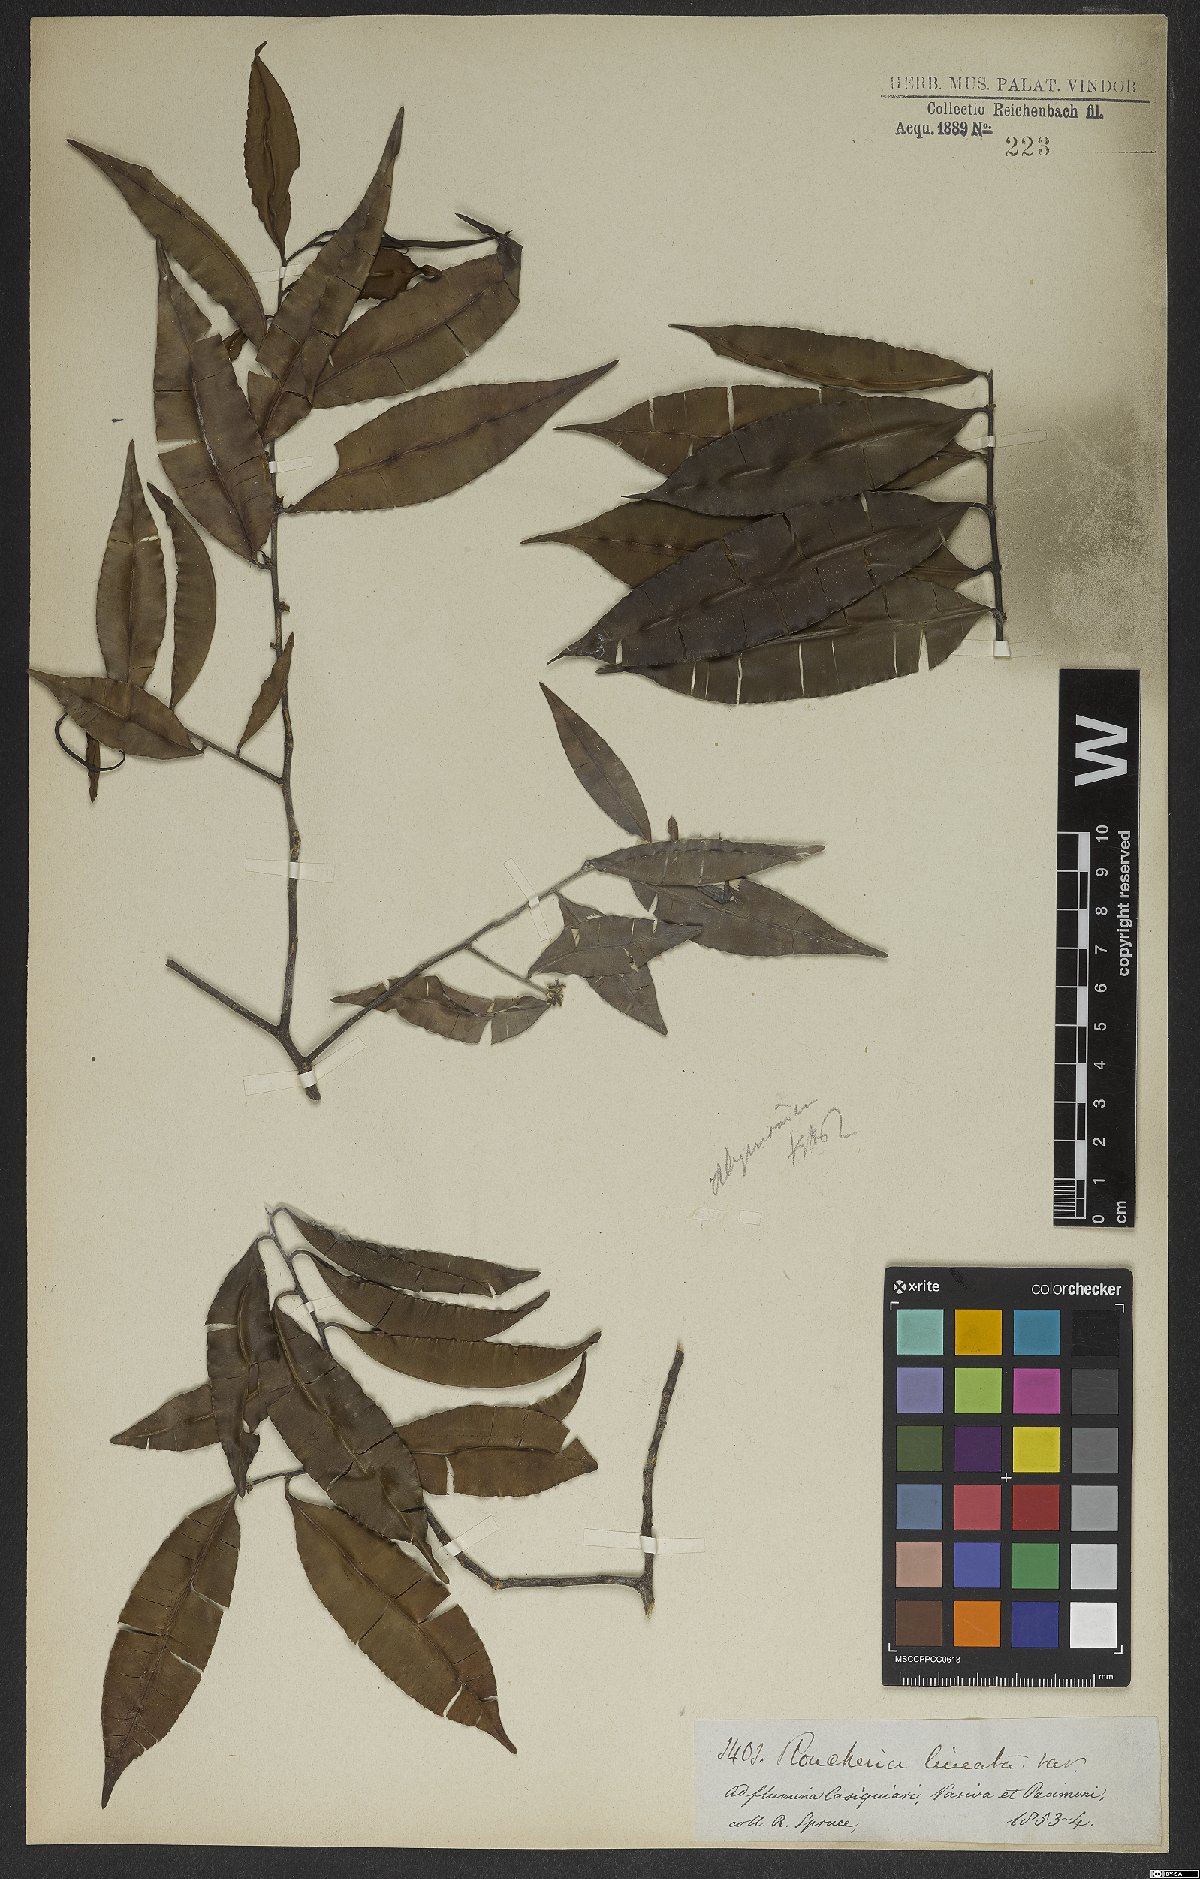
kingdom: Plantae
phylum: Tracheophyta
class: Magnoliopsida
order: Malpighiales
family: Linaceae
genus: Roucheria
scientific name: Roucheria
